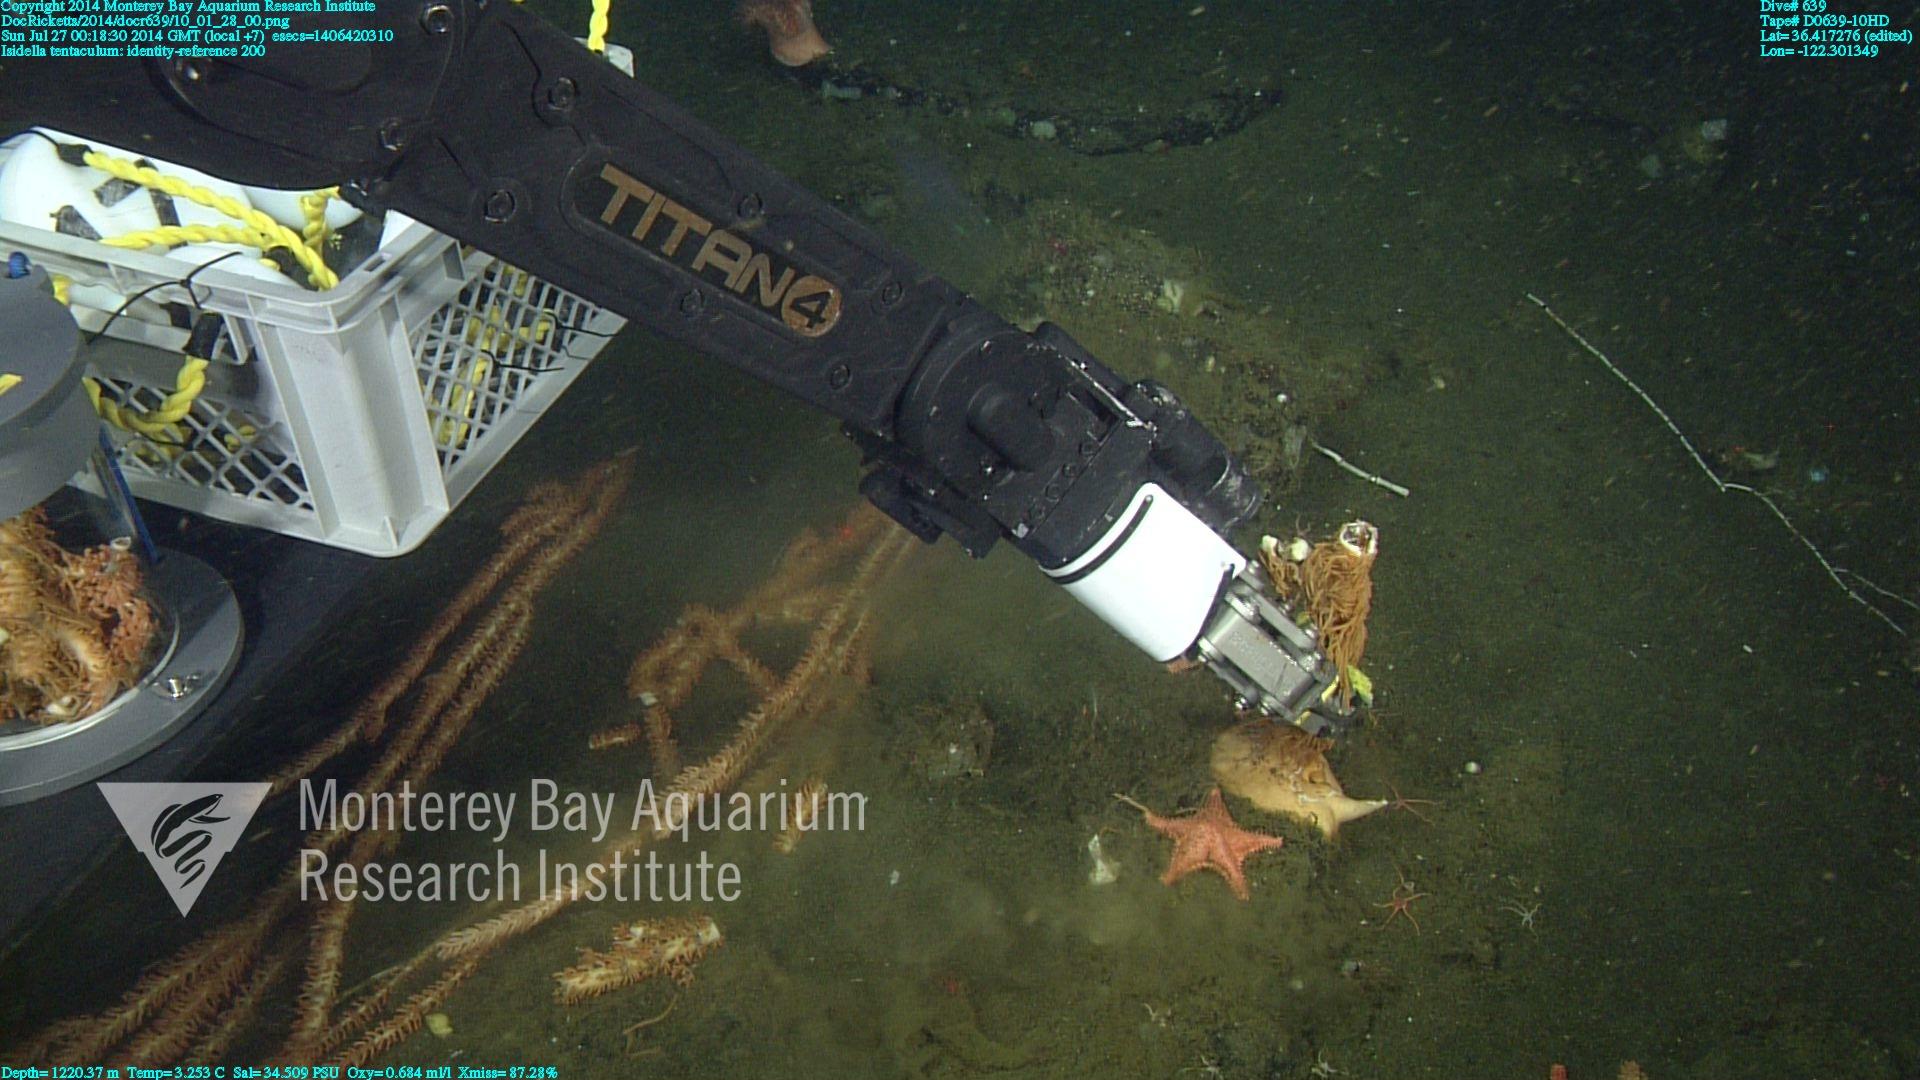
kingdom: Animalia
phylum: Cnidaria
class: Anthozoa
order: Scleralcyonacea
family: Keratoisididae
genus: Isidella
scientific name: Isidella tentaculum
